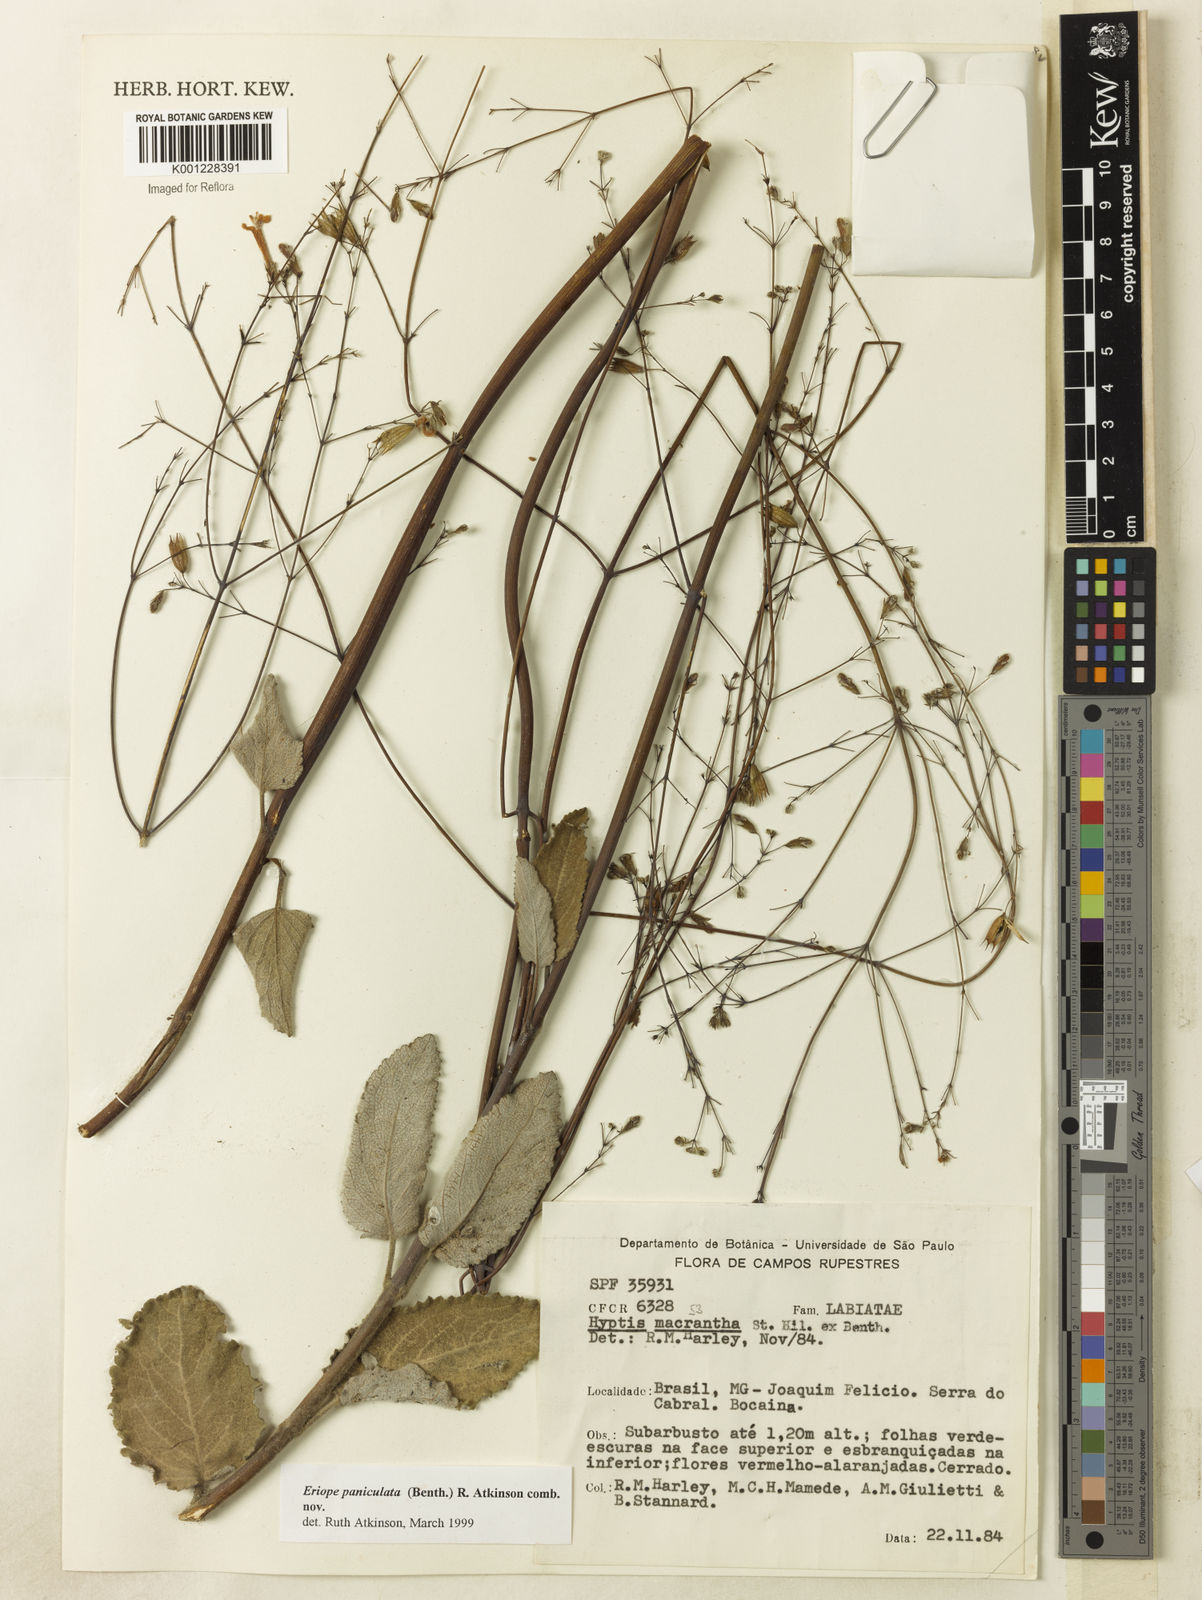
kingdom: Plantae
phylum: Tracheophyta
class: Magnoliopsida
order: Lamiales
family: Lamiaceae
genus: Hypenia
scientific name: Hypenia paniculata
